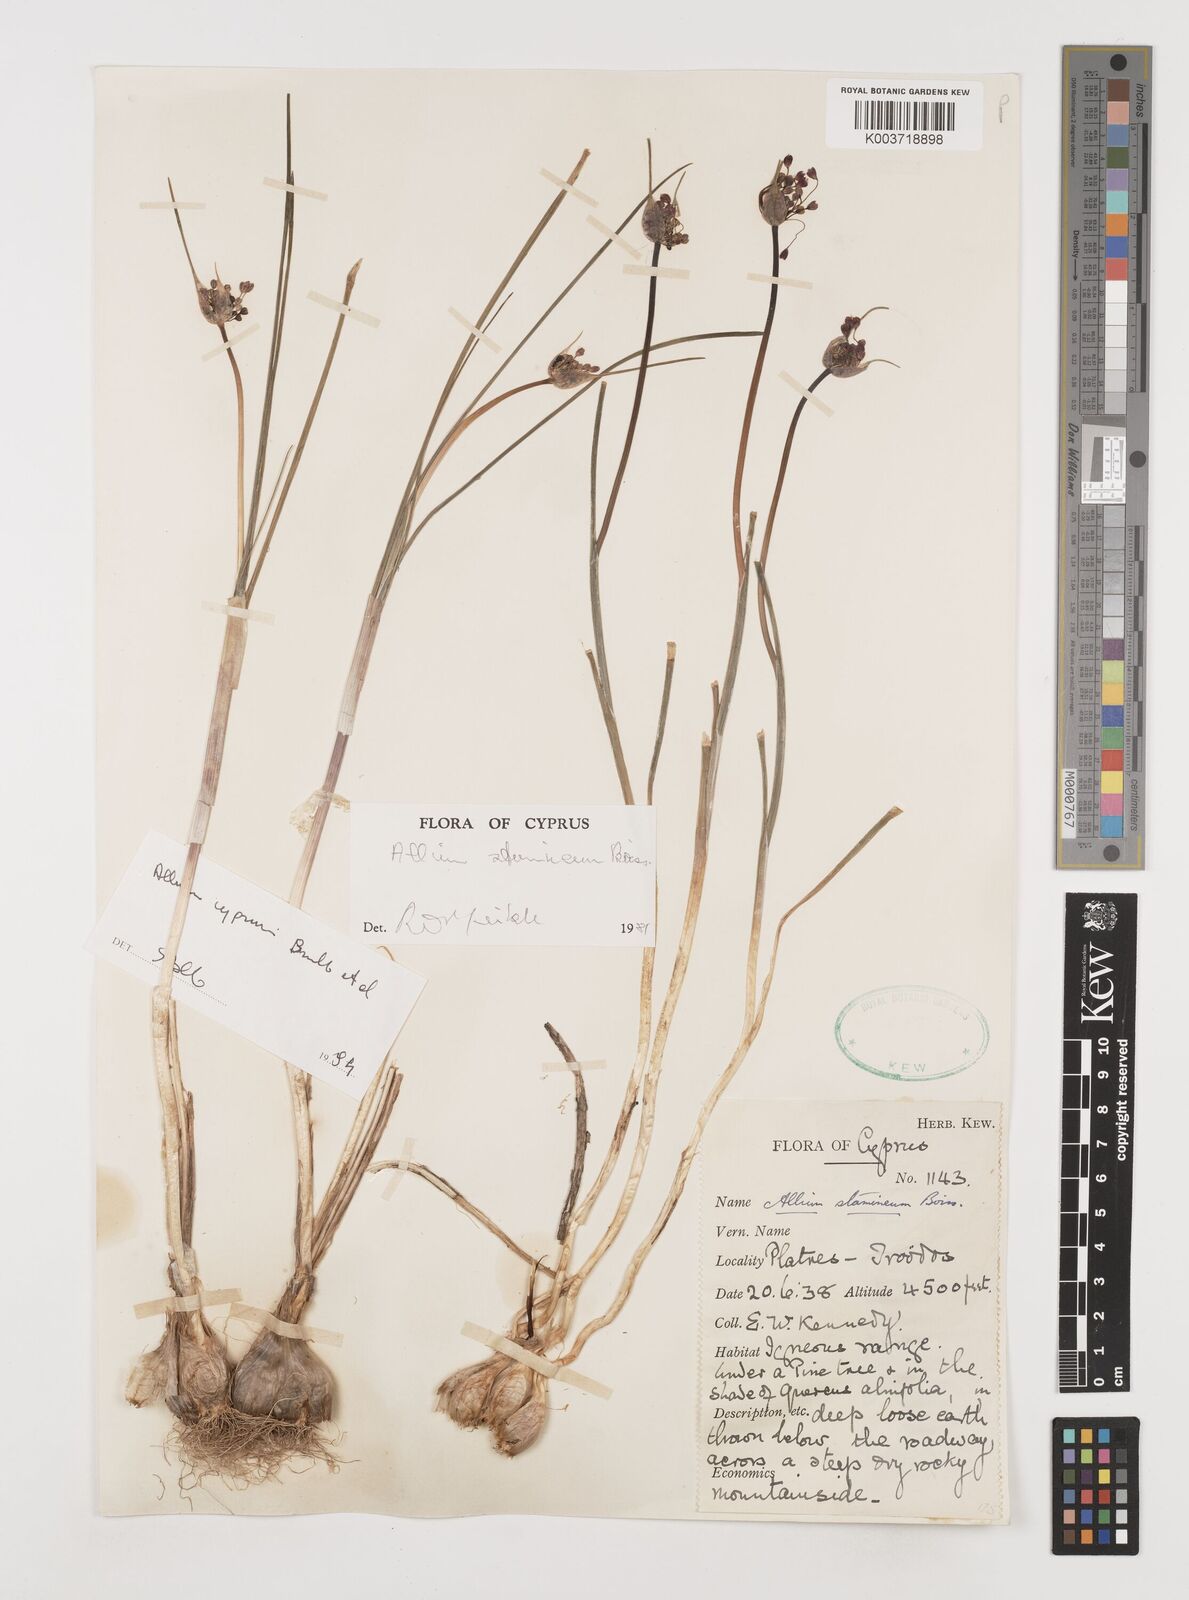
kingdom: Plantae
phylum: Tracheophyta
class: Liliopsida
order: Asparagales
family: Amaryllidaceae
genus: Allium
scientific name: Allium stamineum
